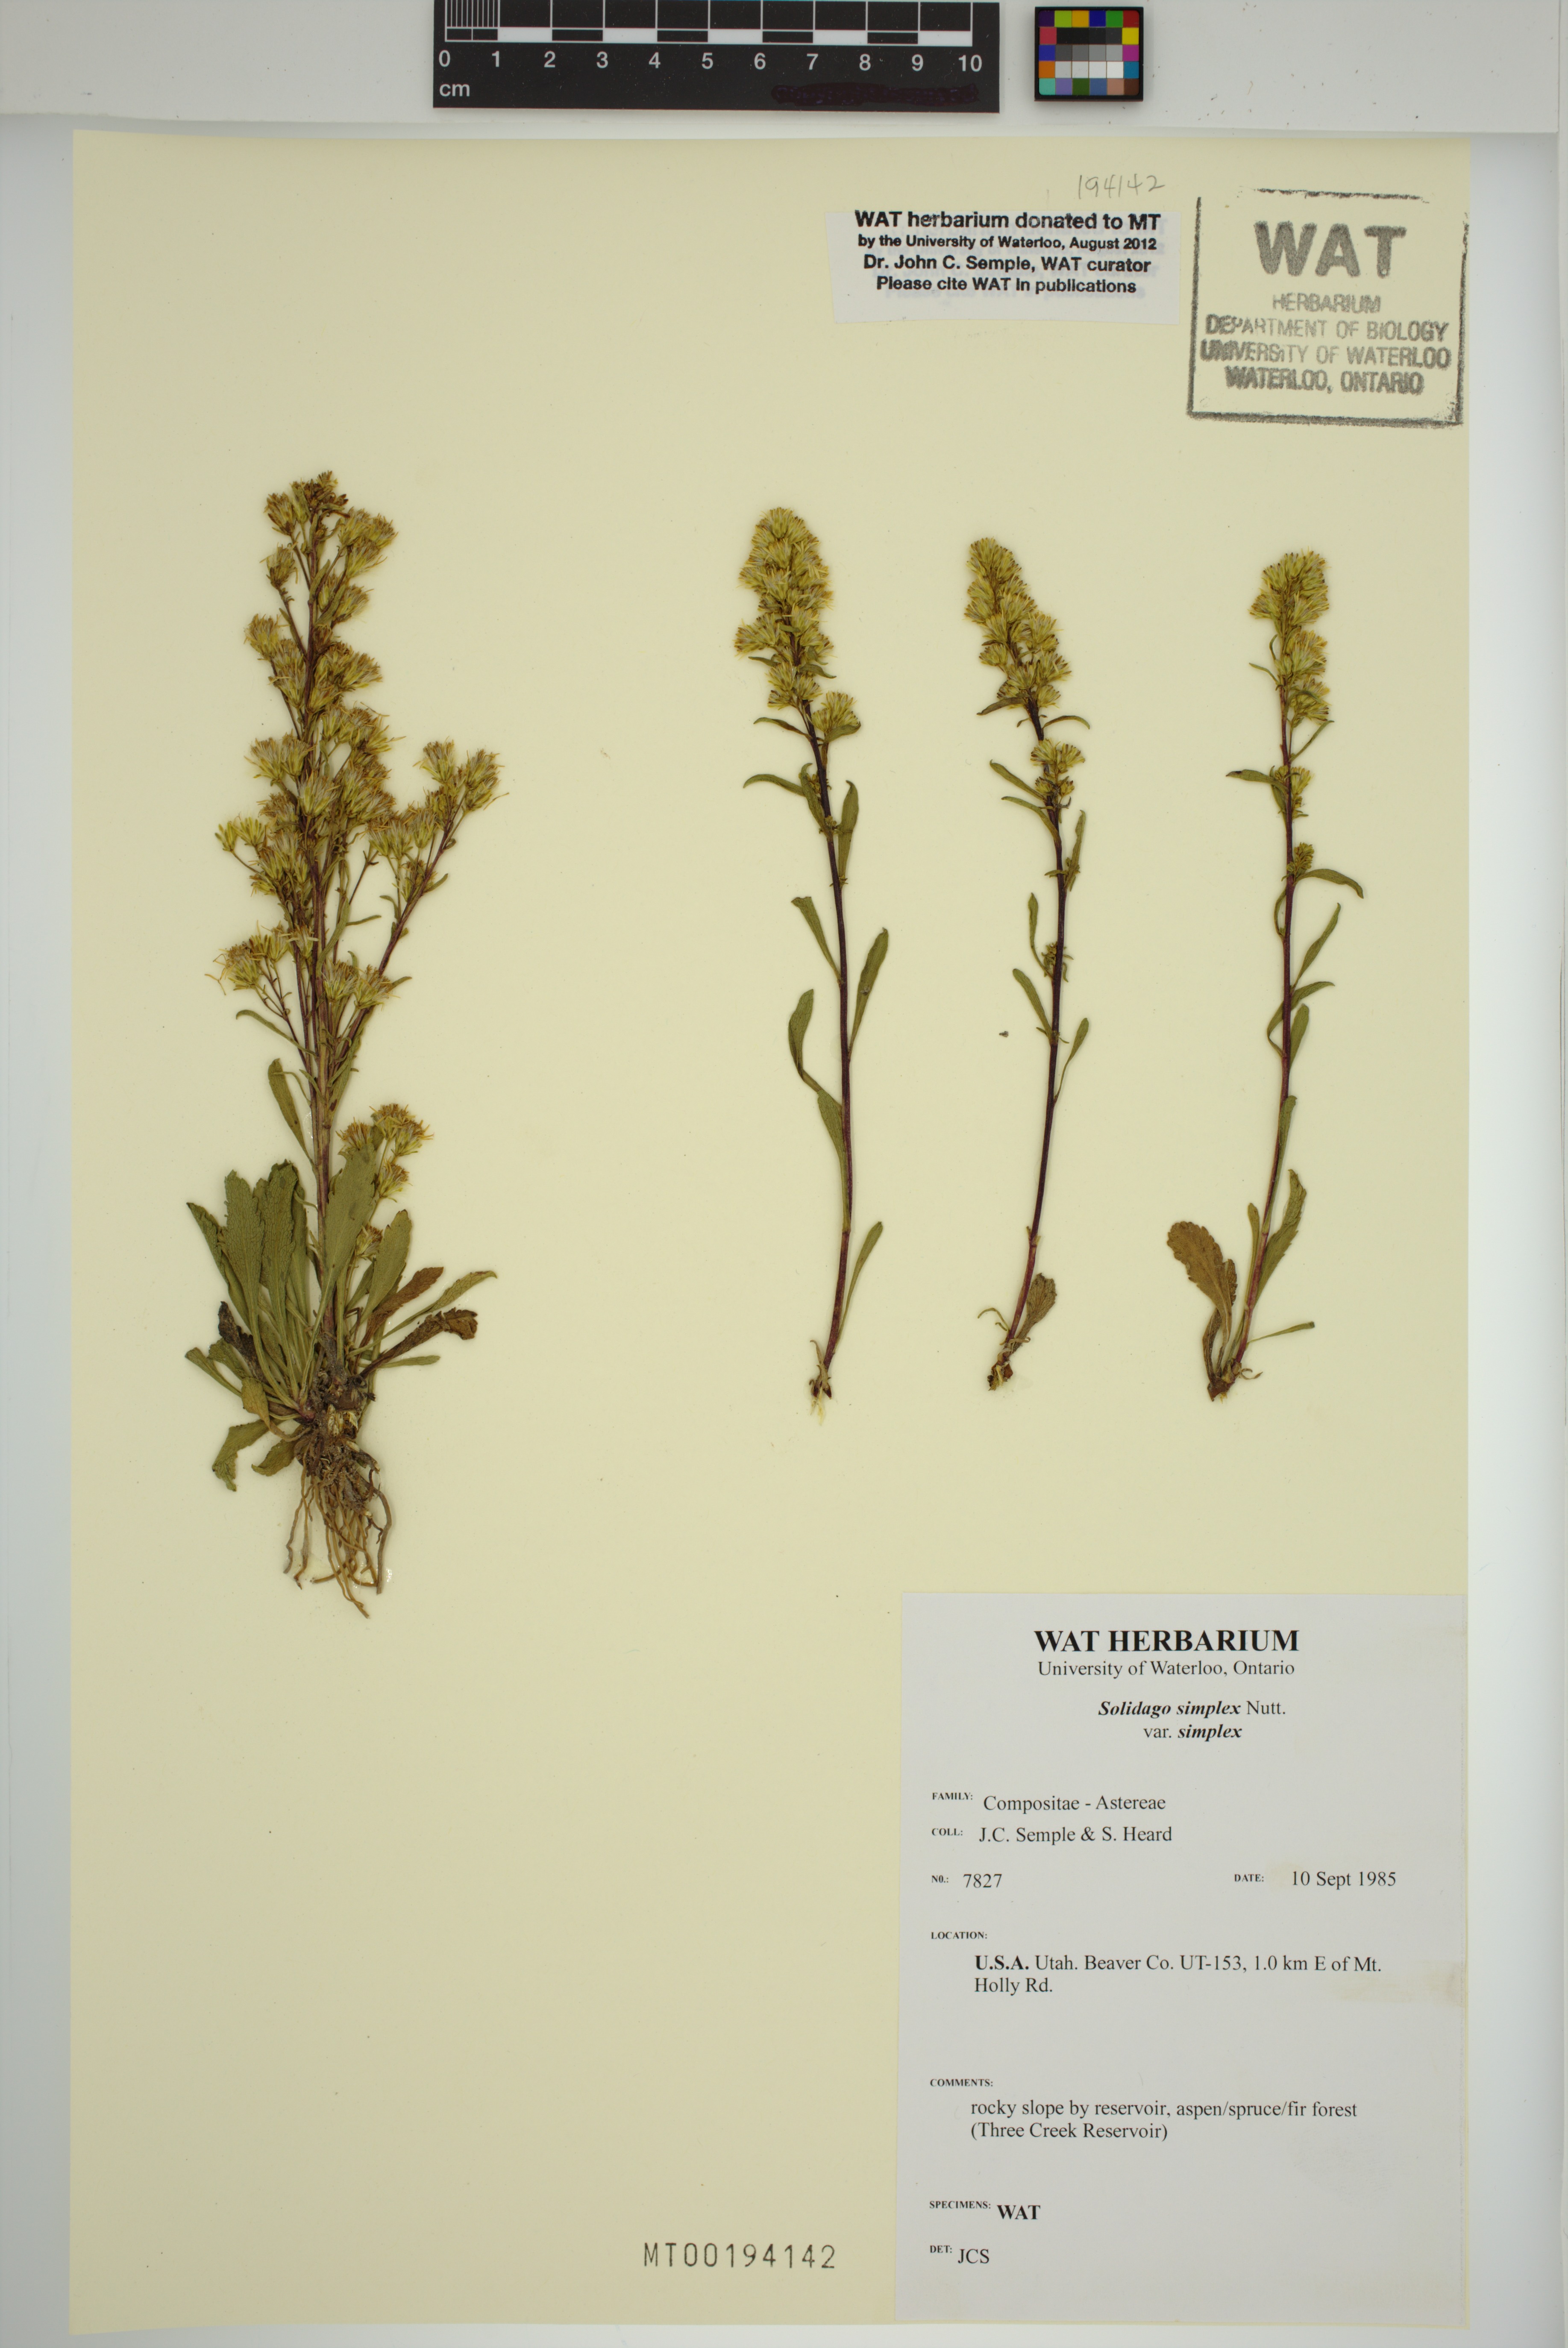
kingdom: Plantae
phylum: Tracheophyta
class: Magnoliopsida
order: Asterales
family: Asteraceae
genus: Solidago
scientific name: Solidago glutinosa
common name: Decumbent goldenrod
